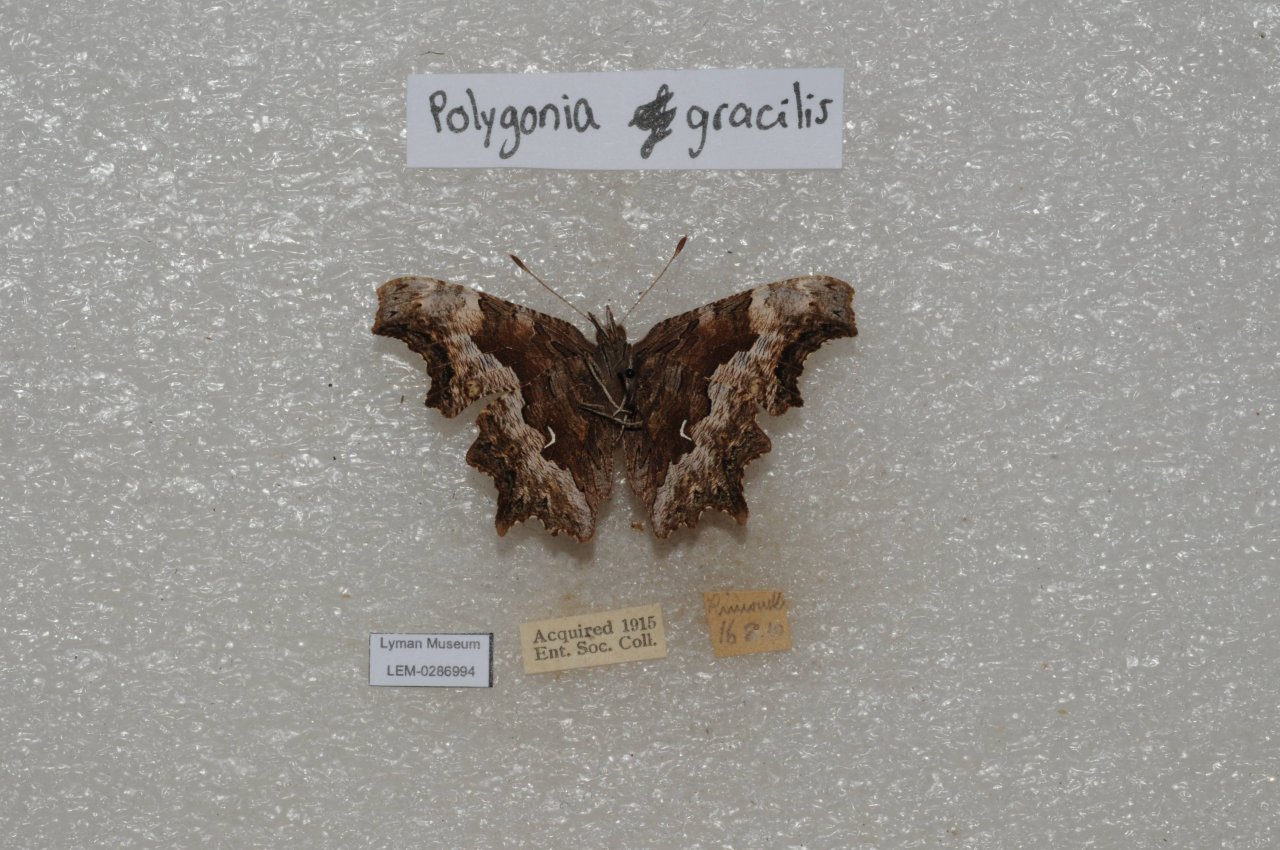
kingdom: Animalia
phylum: Arthropoda
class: Insecta
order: Lepidoptera
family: Nymphalidae
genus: Polygonia
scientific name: Polygonia gracilis
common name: Hoary Comma
